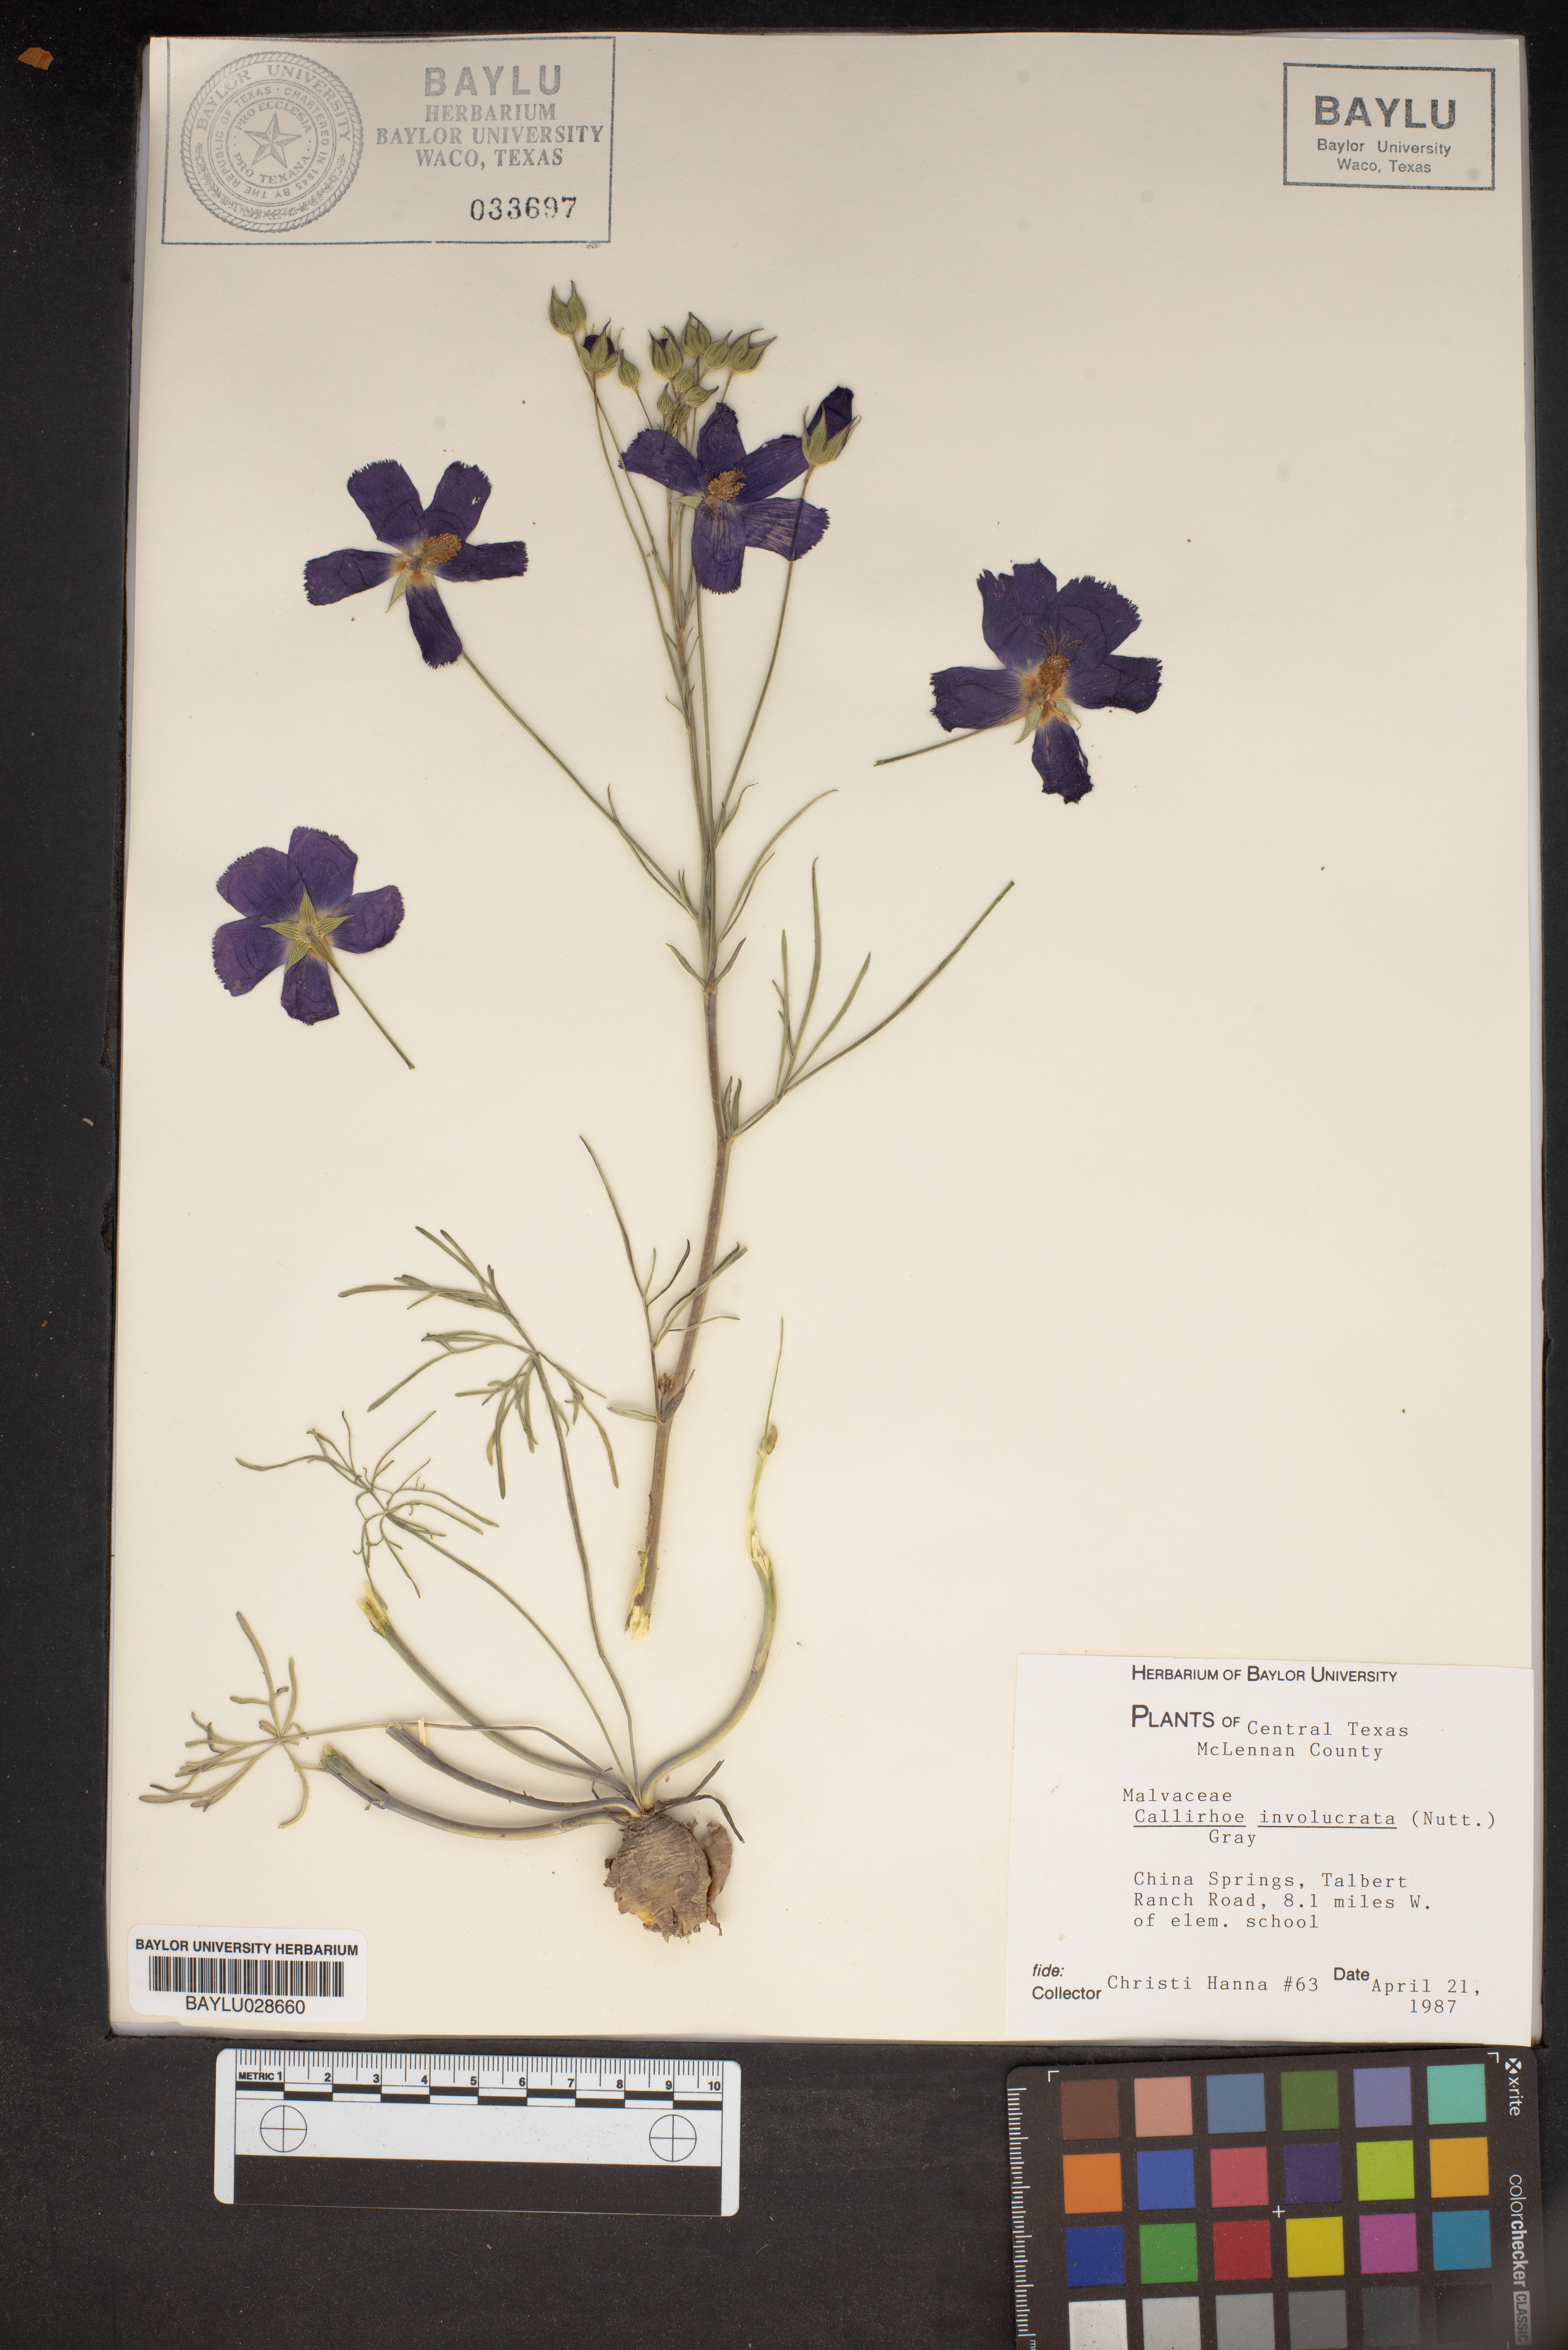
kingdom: Plantae
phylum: Tracheophyta
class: Magnoliopsida
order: Malvales
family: Malvaceae
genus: Callirhoe
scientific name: Callirhoe involucrata
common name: Purple poppy-mallow
